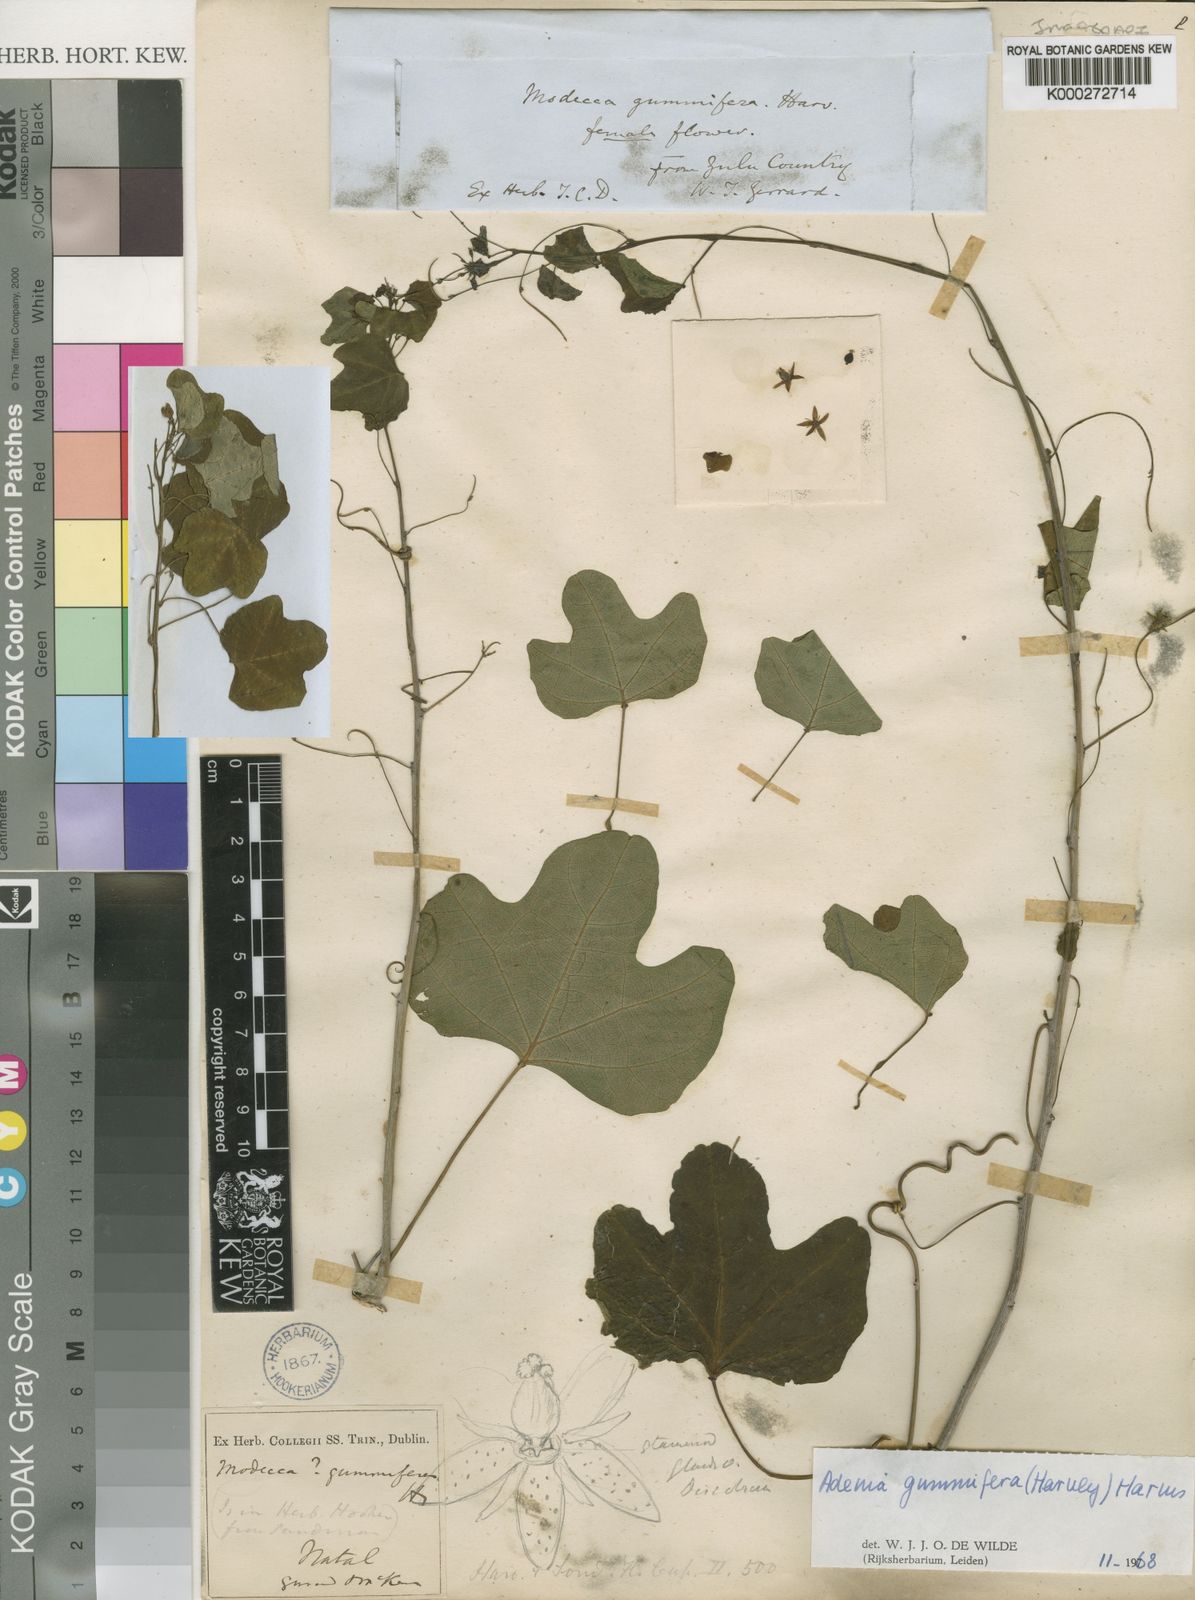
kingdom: Plantae
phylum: Tracheophyta
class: Magnoliopsida
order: Malpighiales
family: Passifloraceae
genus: Adenia
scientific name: Adenia cissampeloides
